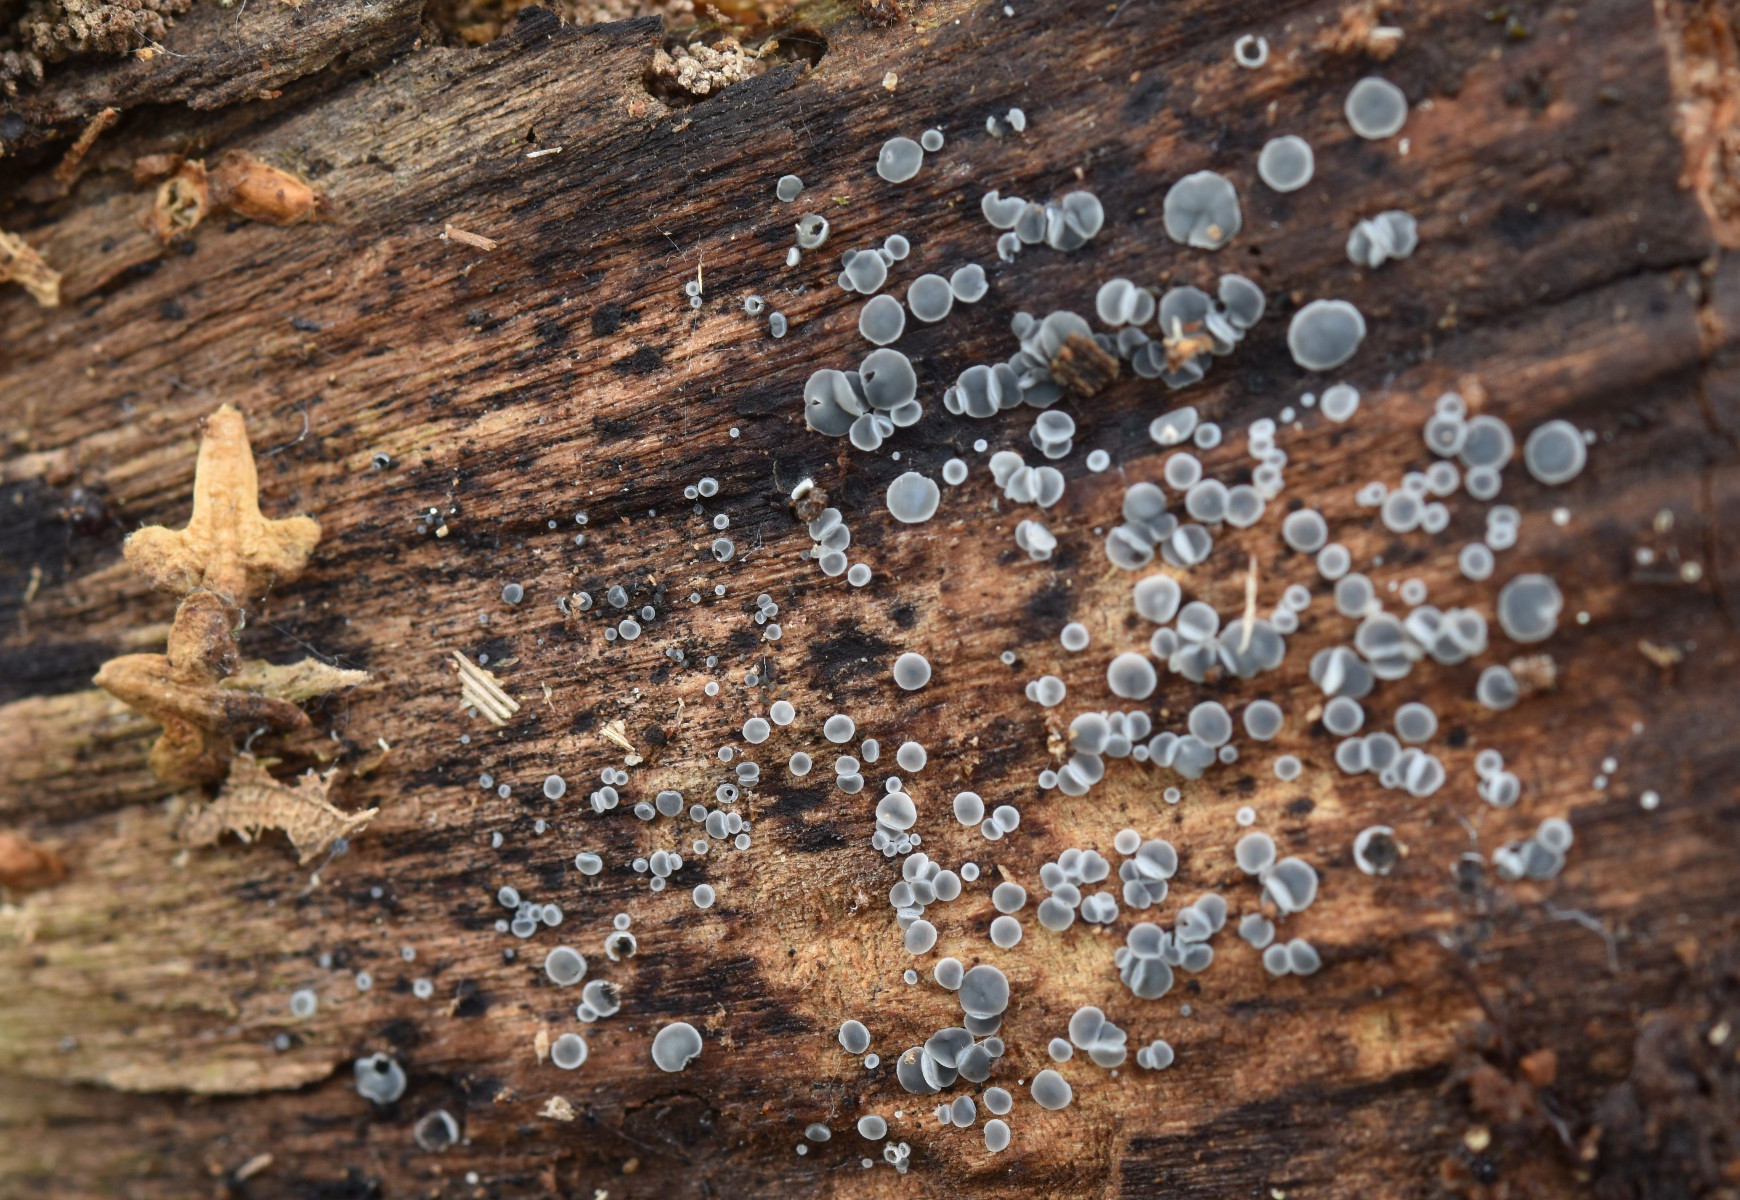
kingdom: Fungi
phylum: Ascomycota
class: Leotiomycetes
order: Helotiales
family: Mollisiaceae
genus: Mollisia
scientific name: Mollisia
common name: gråskive
